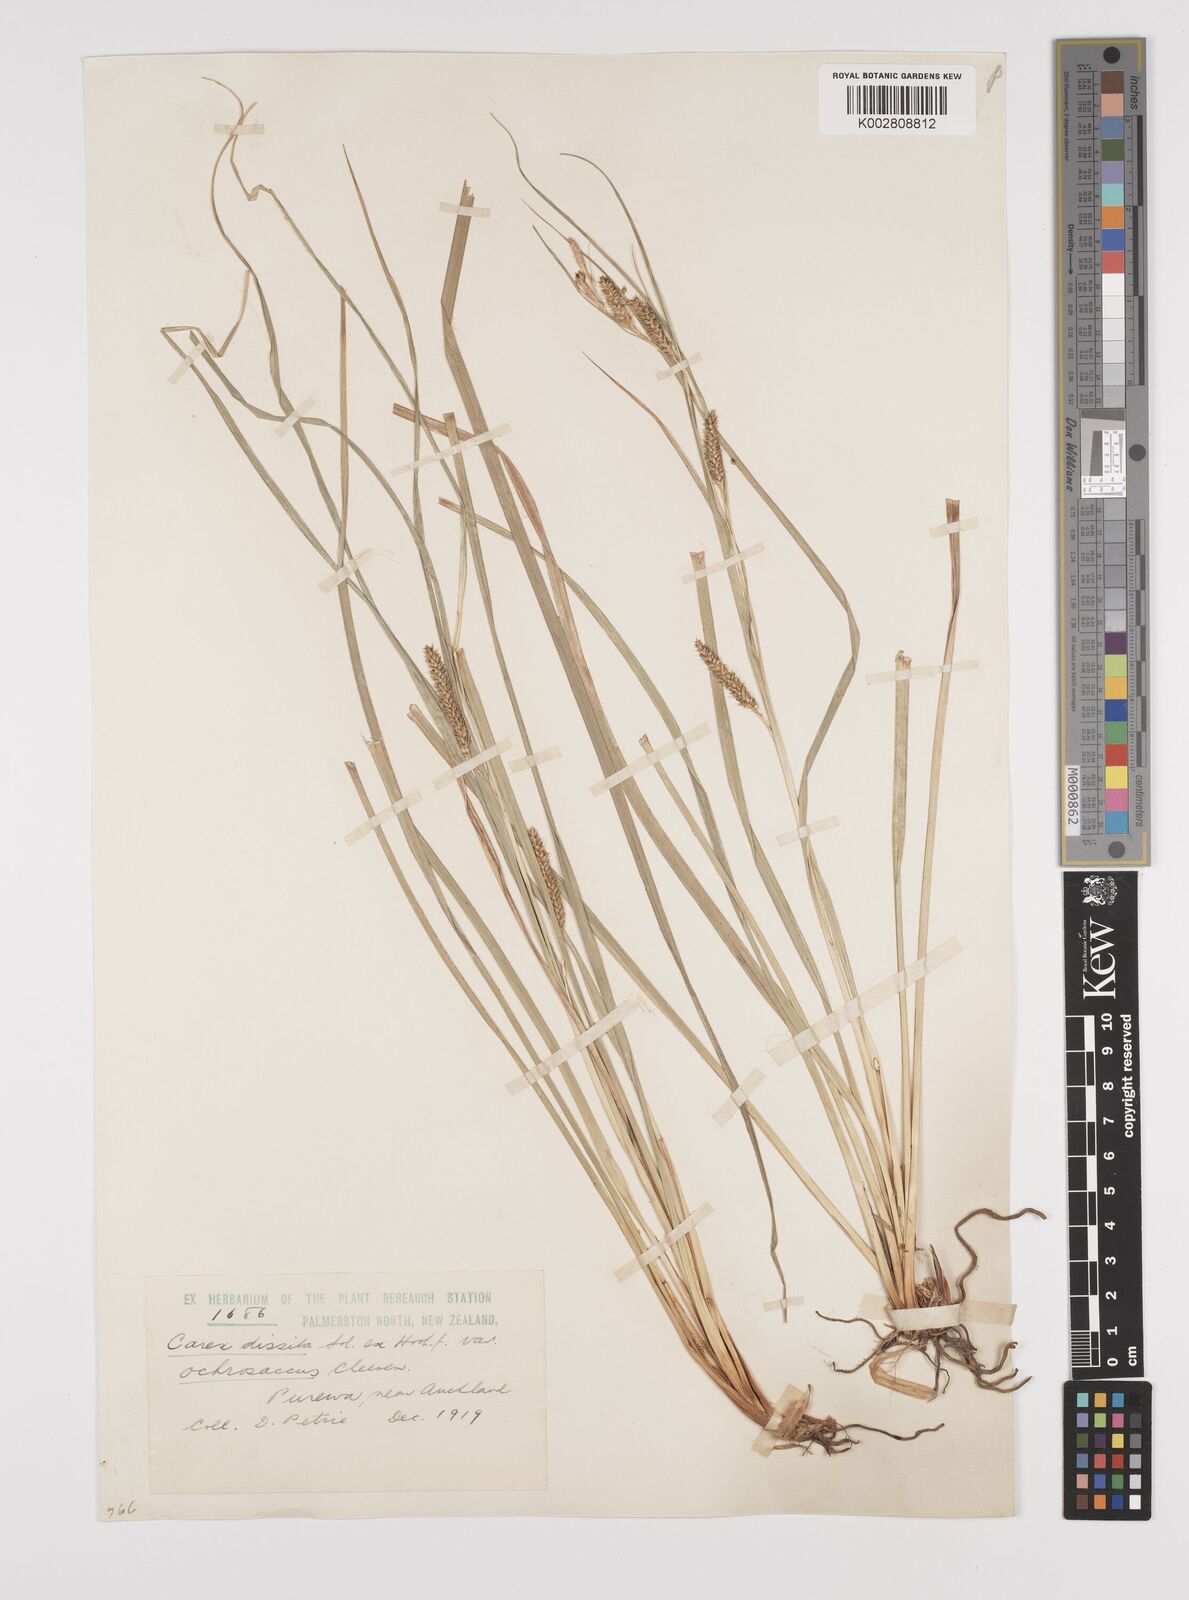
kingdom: Plantae
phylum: Tracheophyta
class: Liliopsida
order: Poales
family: Cyperaceae
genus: Carex
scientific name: Carex ochrosaccus
